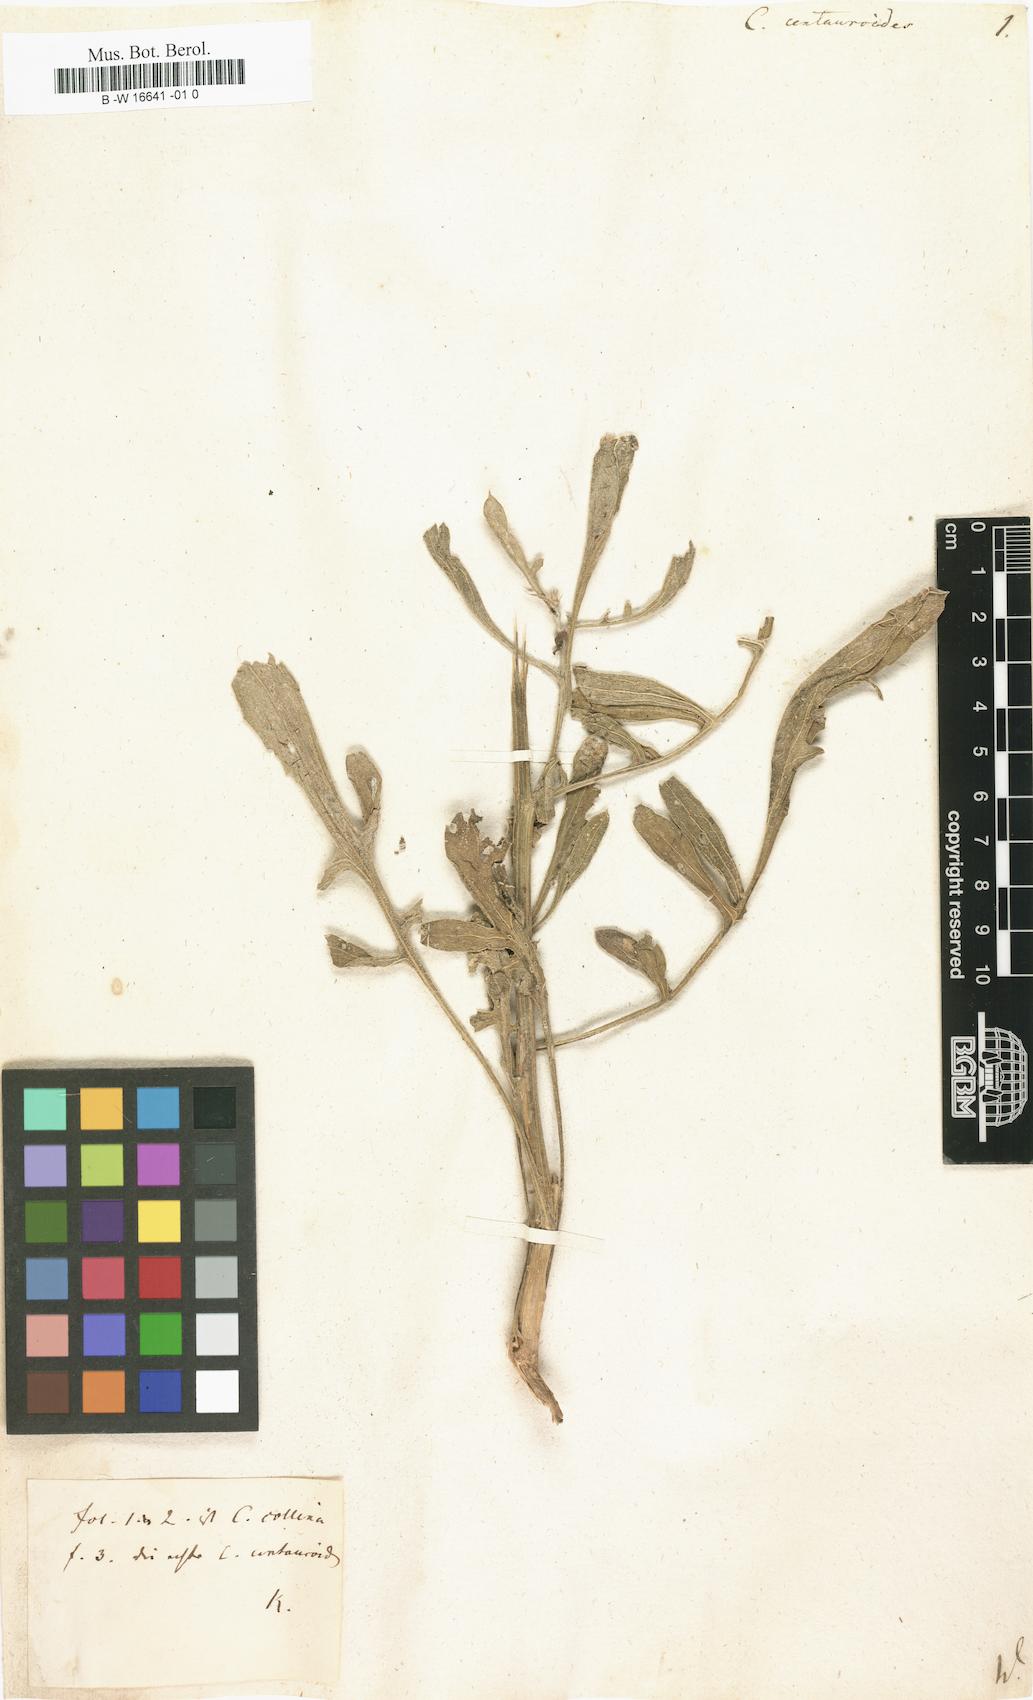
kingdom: Plantae
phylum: Tracheophyta
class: Magnoliopsida
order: Asterales
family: Asteraceae
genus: Centaurea
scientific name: Centaurea centauroides
